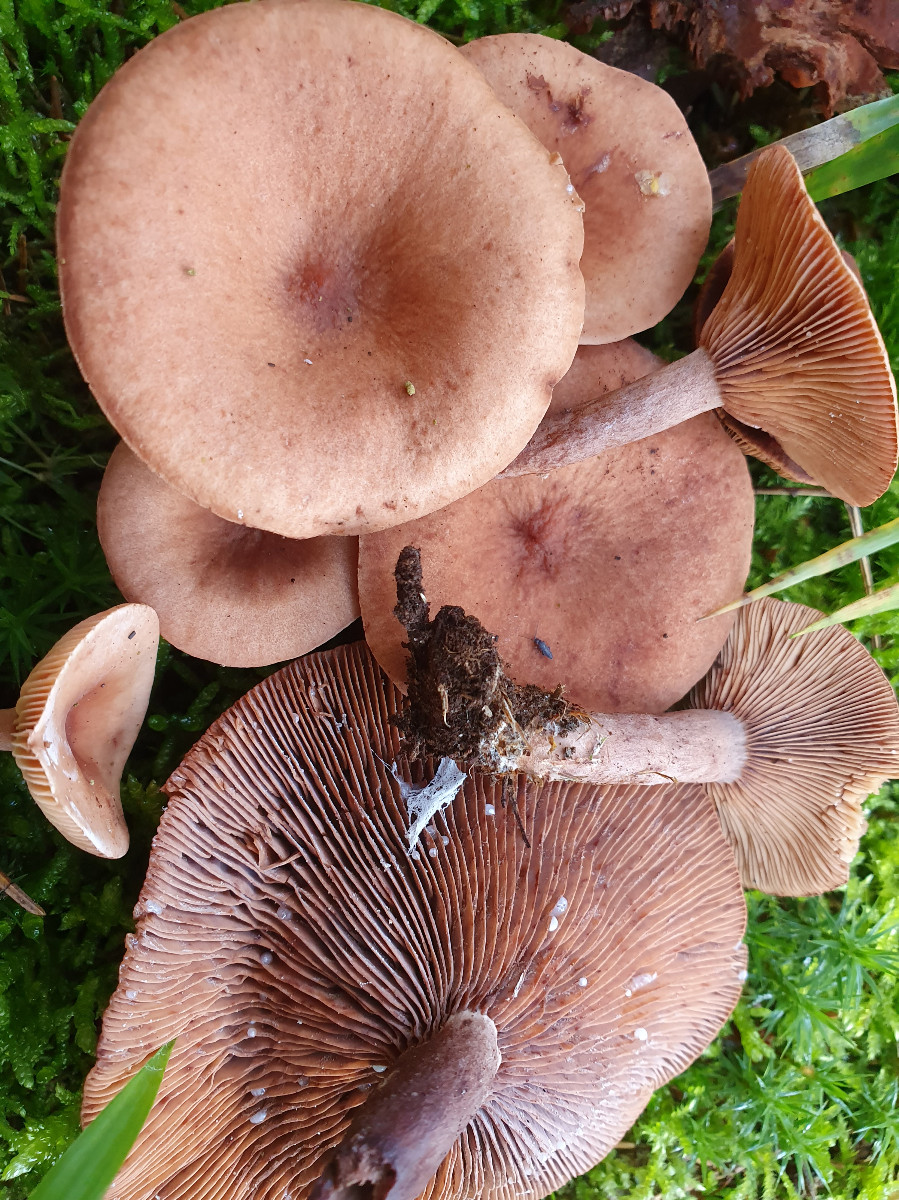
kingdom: Fungi
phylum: Basidiomycota
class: Agaricomycetes
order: Russulales
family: Russulaceae
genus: Lactarius
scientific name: Lactarius camphoratus
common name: kamfer-mælkehat
